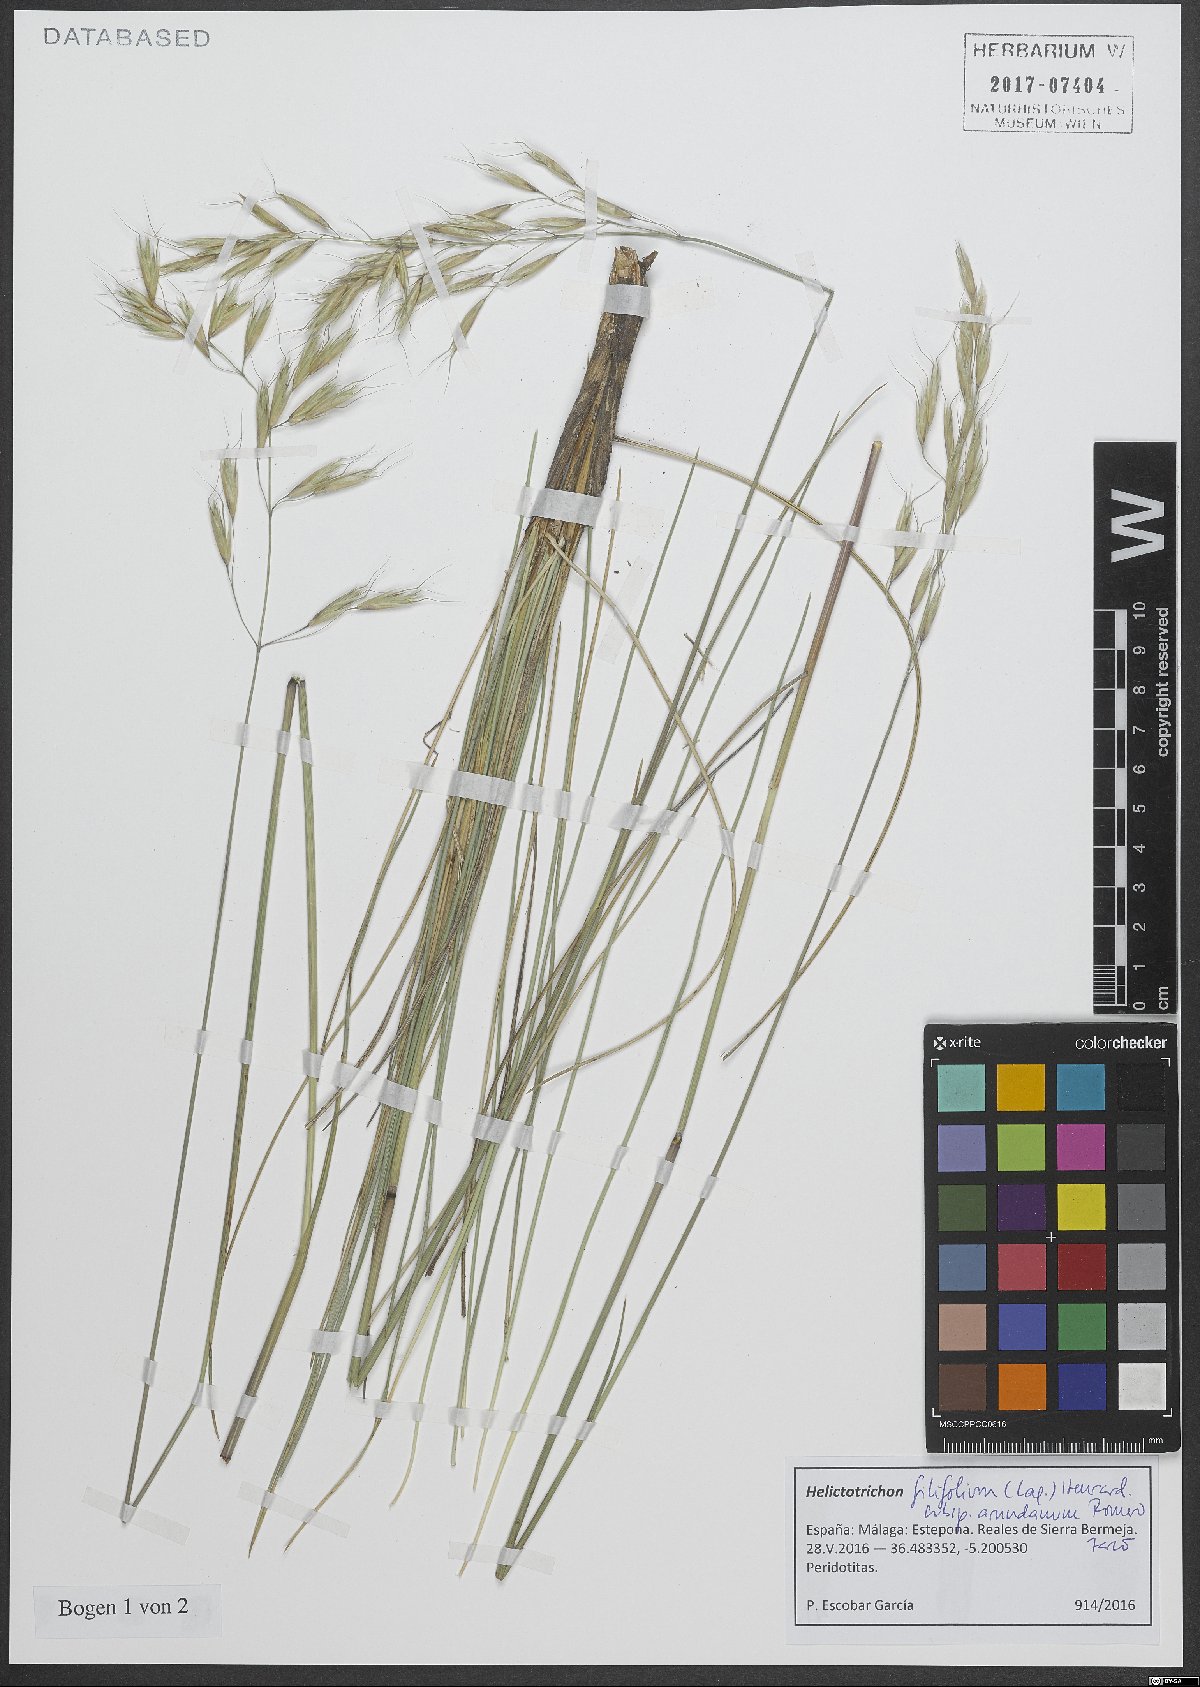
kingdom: Plantae
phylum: Tracheophyta
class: Liliopsida
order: Poales
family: Poaceae
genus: Helictotrichon
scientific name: Helictotrichon filifolium
